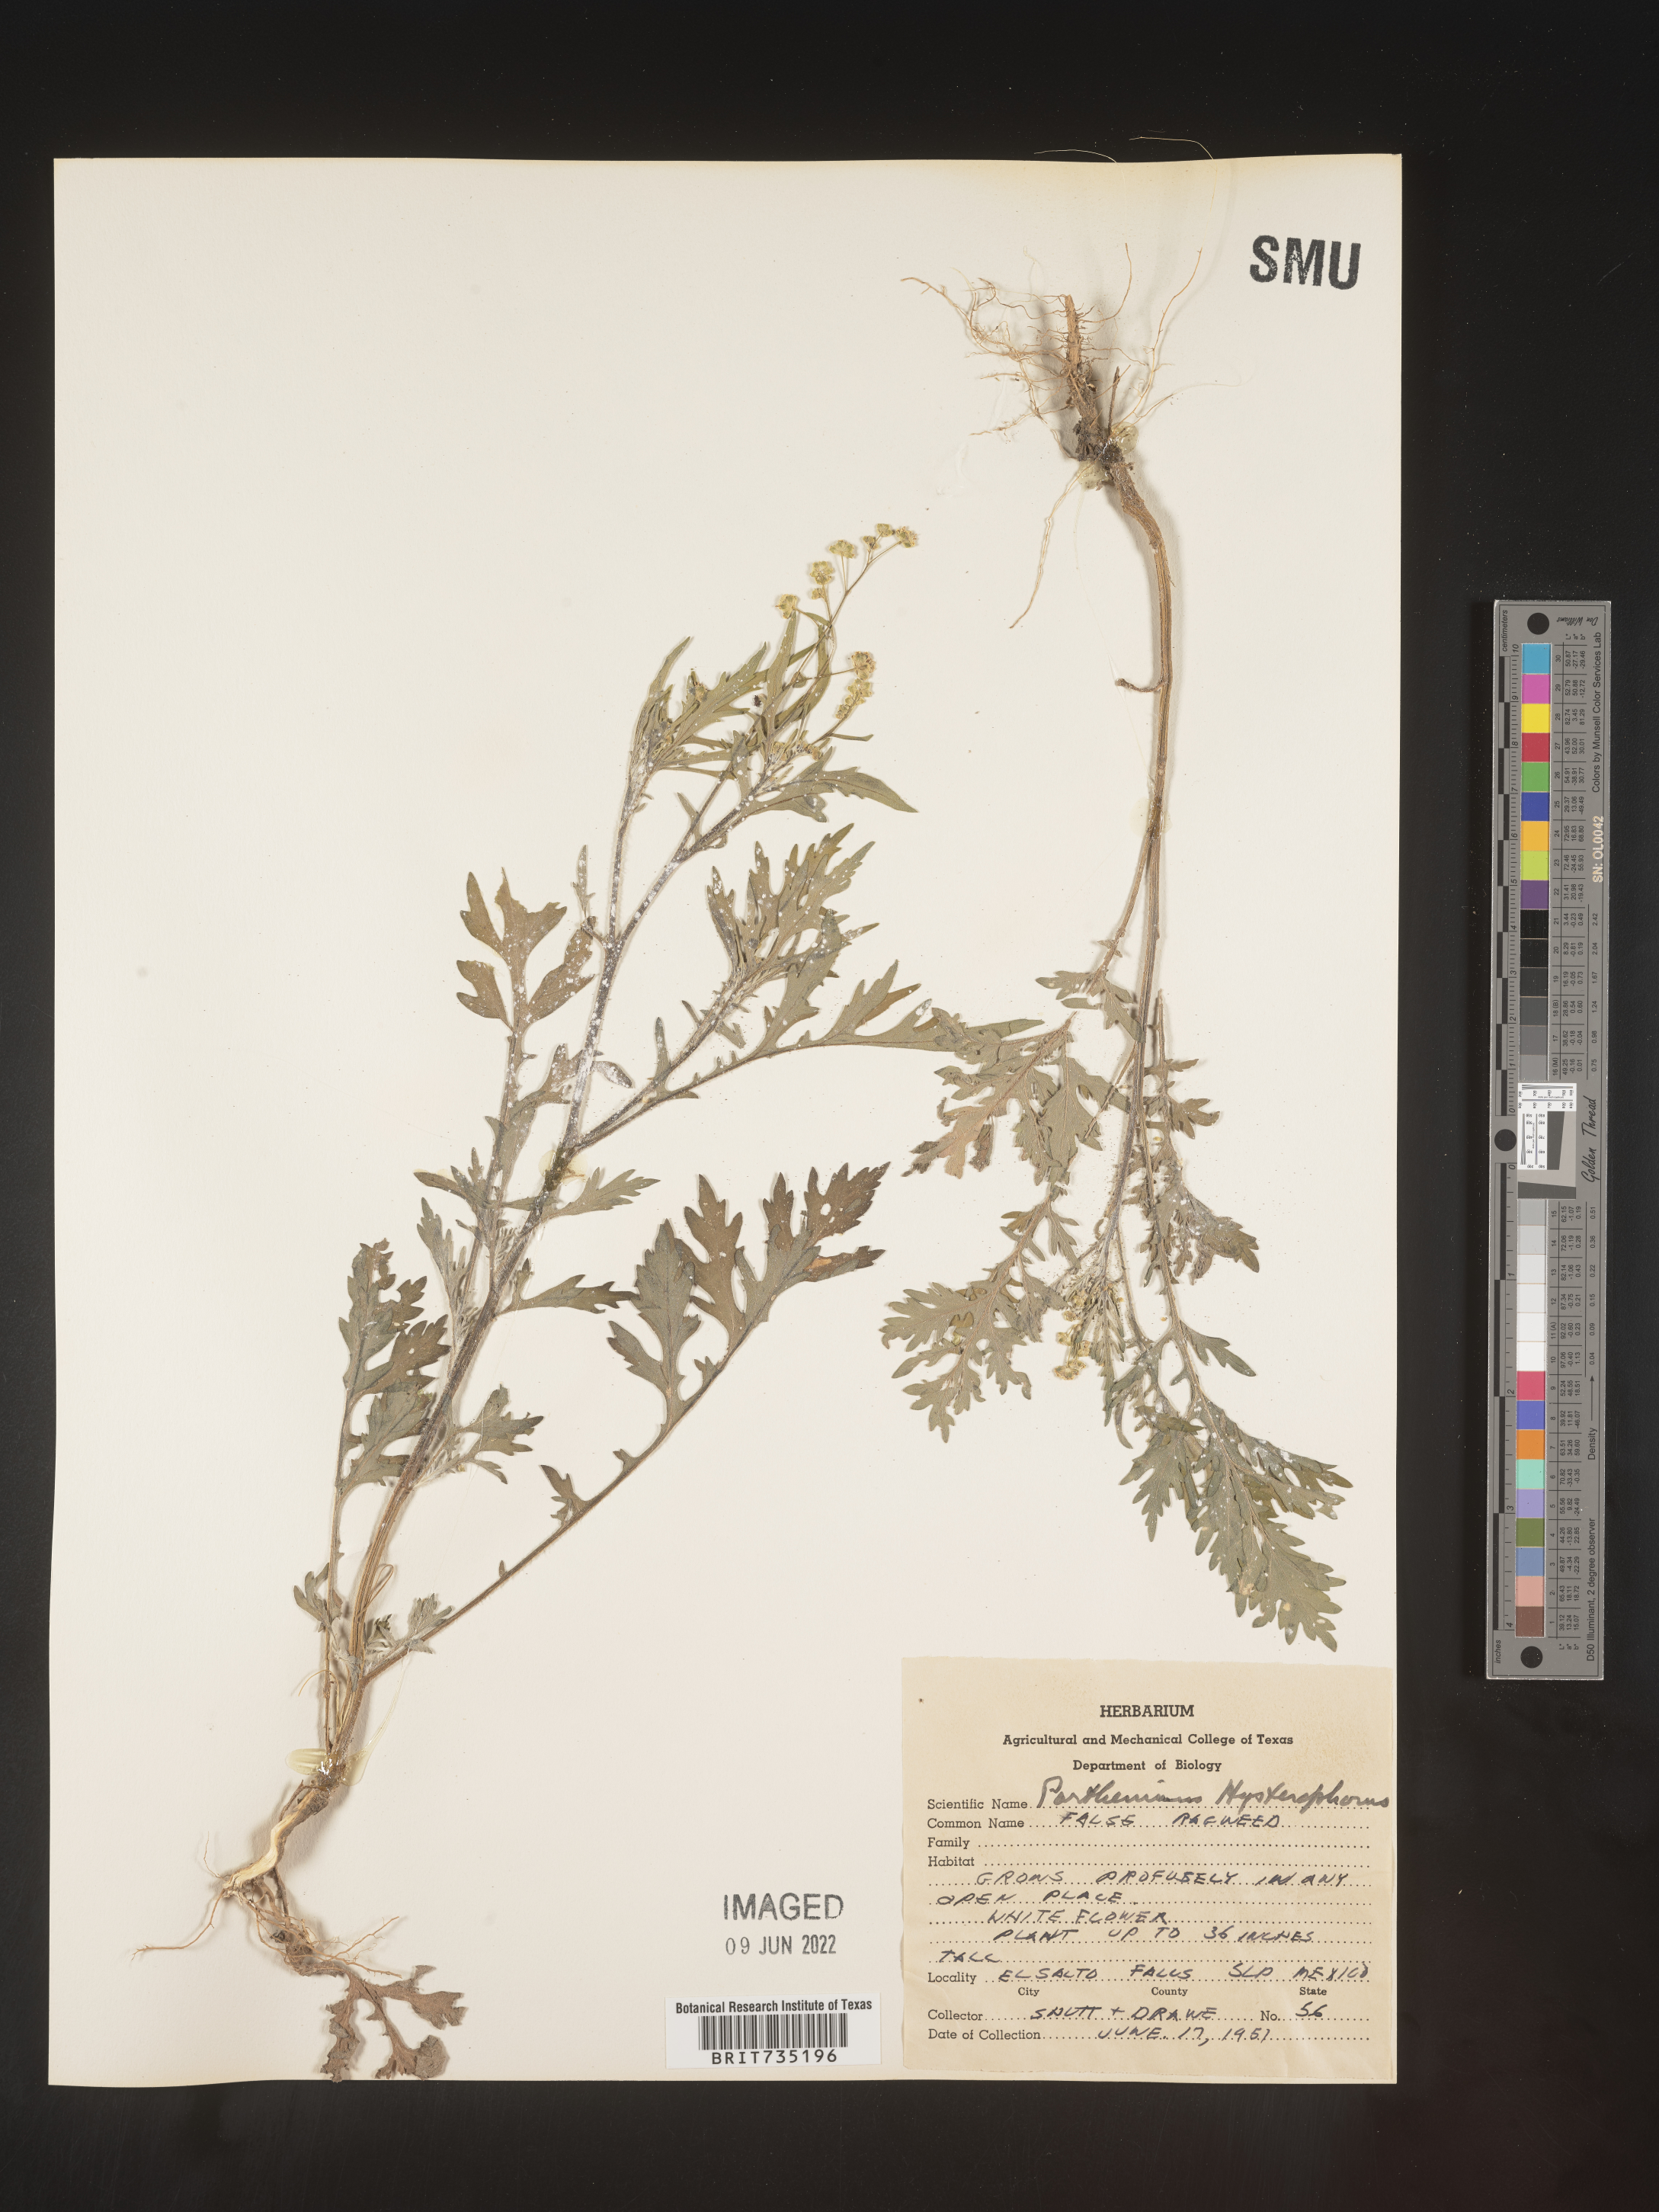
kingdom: Plantae
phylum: Tracheophyta
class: Magnoliopsida
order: Asterales
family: Asteraceae
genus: Parthenium
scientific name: Parthenium hysterophorus
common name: Santa maria feverfew
